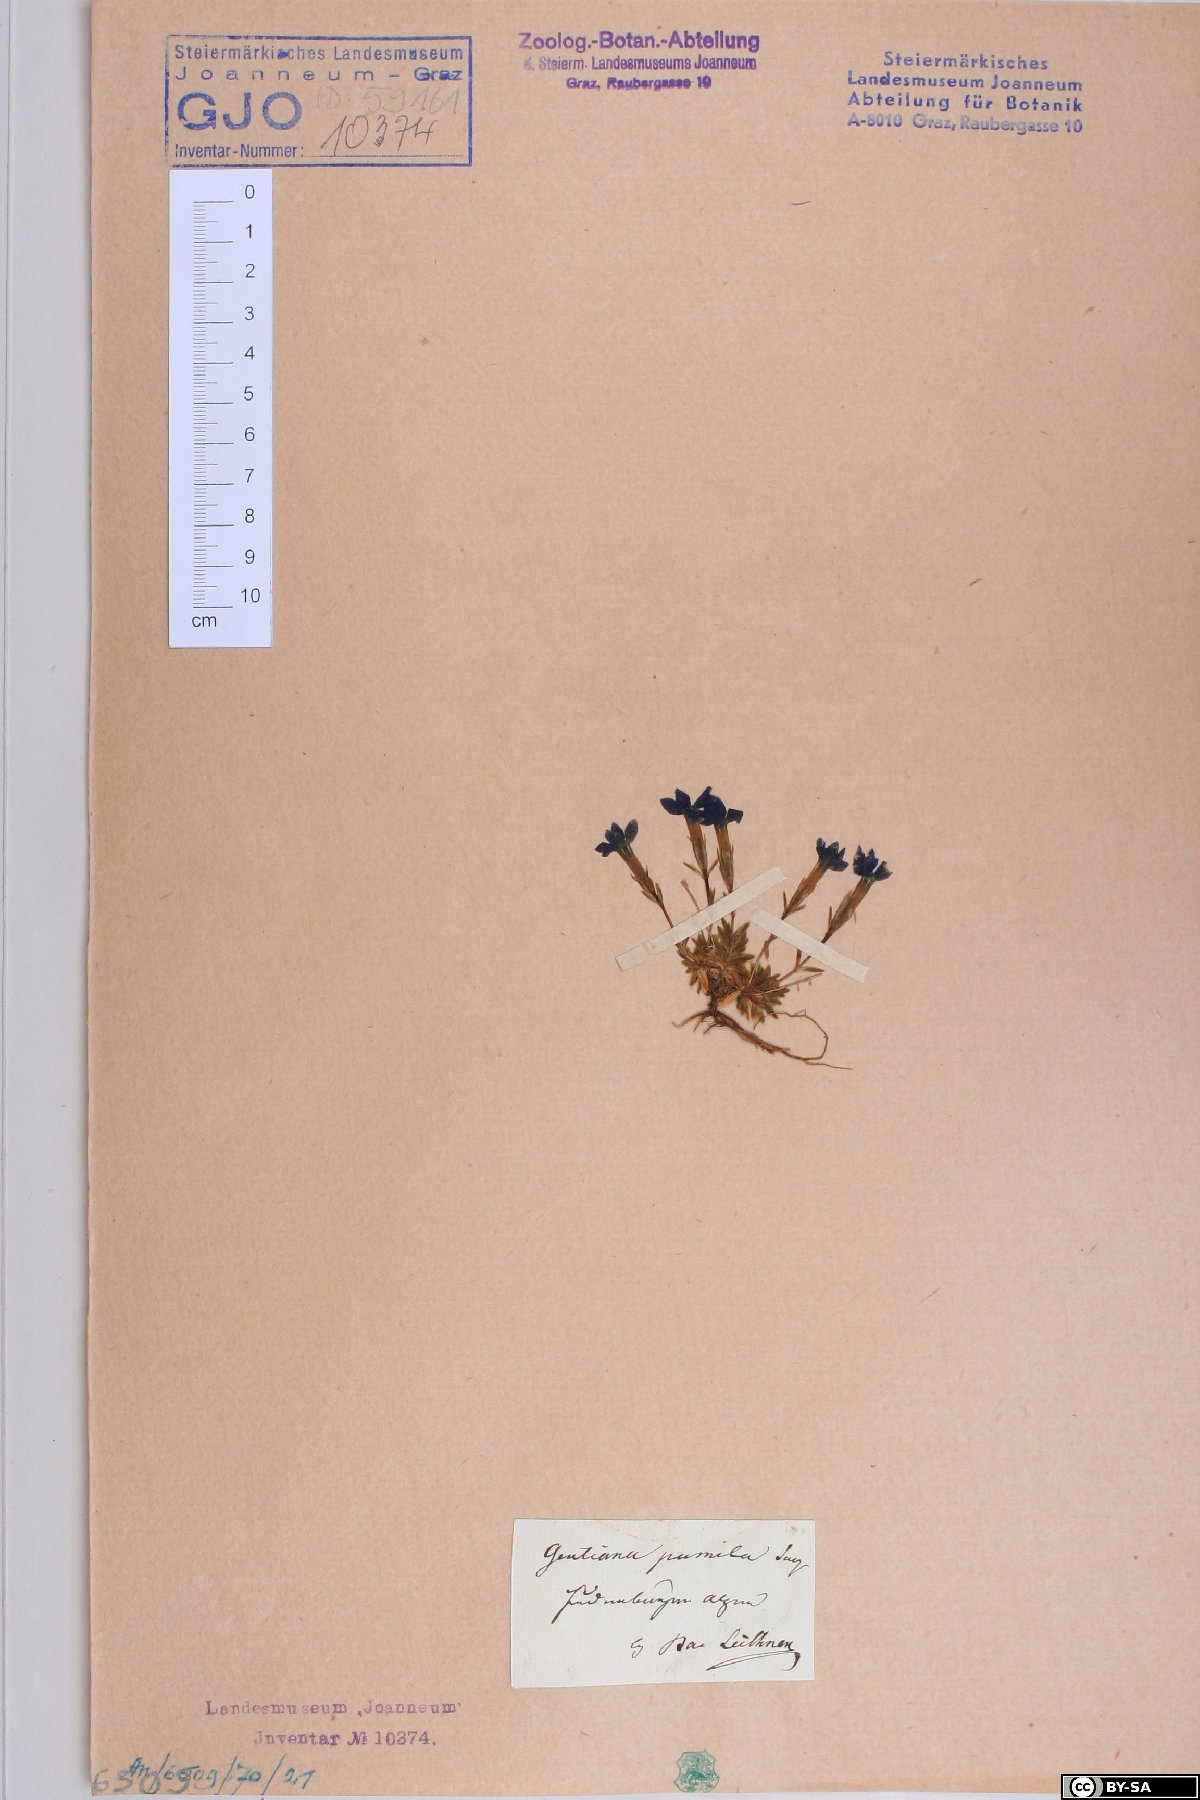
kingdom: Plantae
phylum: Tracheophyta
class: Magnoliopsida
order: Gentianales
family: Gentianaceae
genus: Gentiana
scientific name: Gentiana pumila
